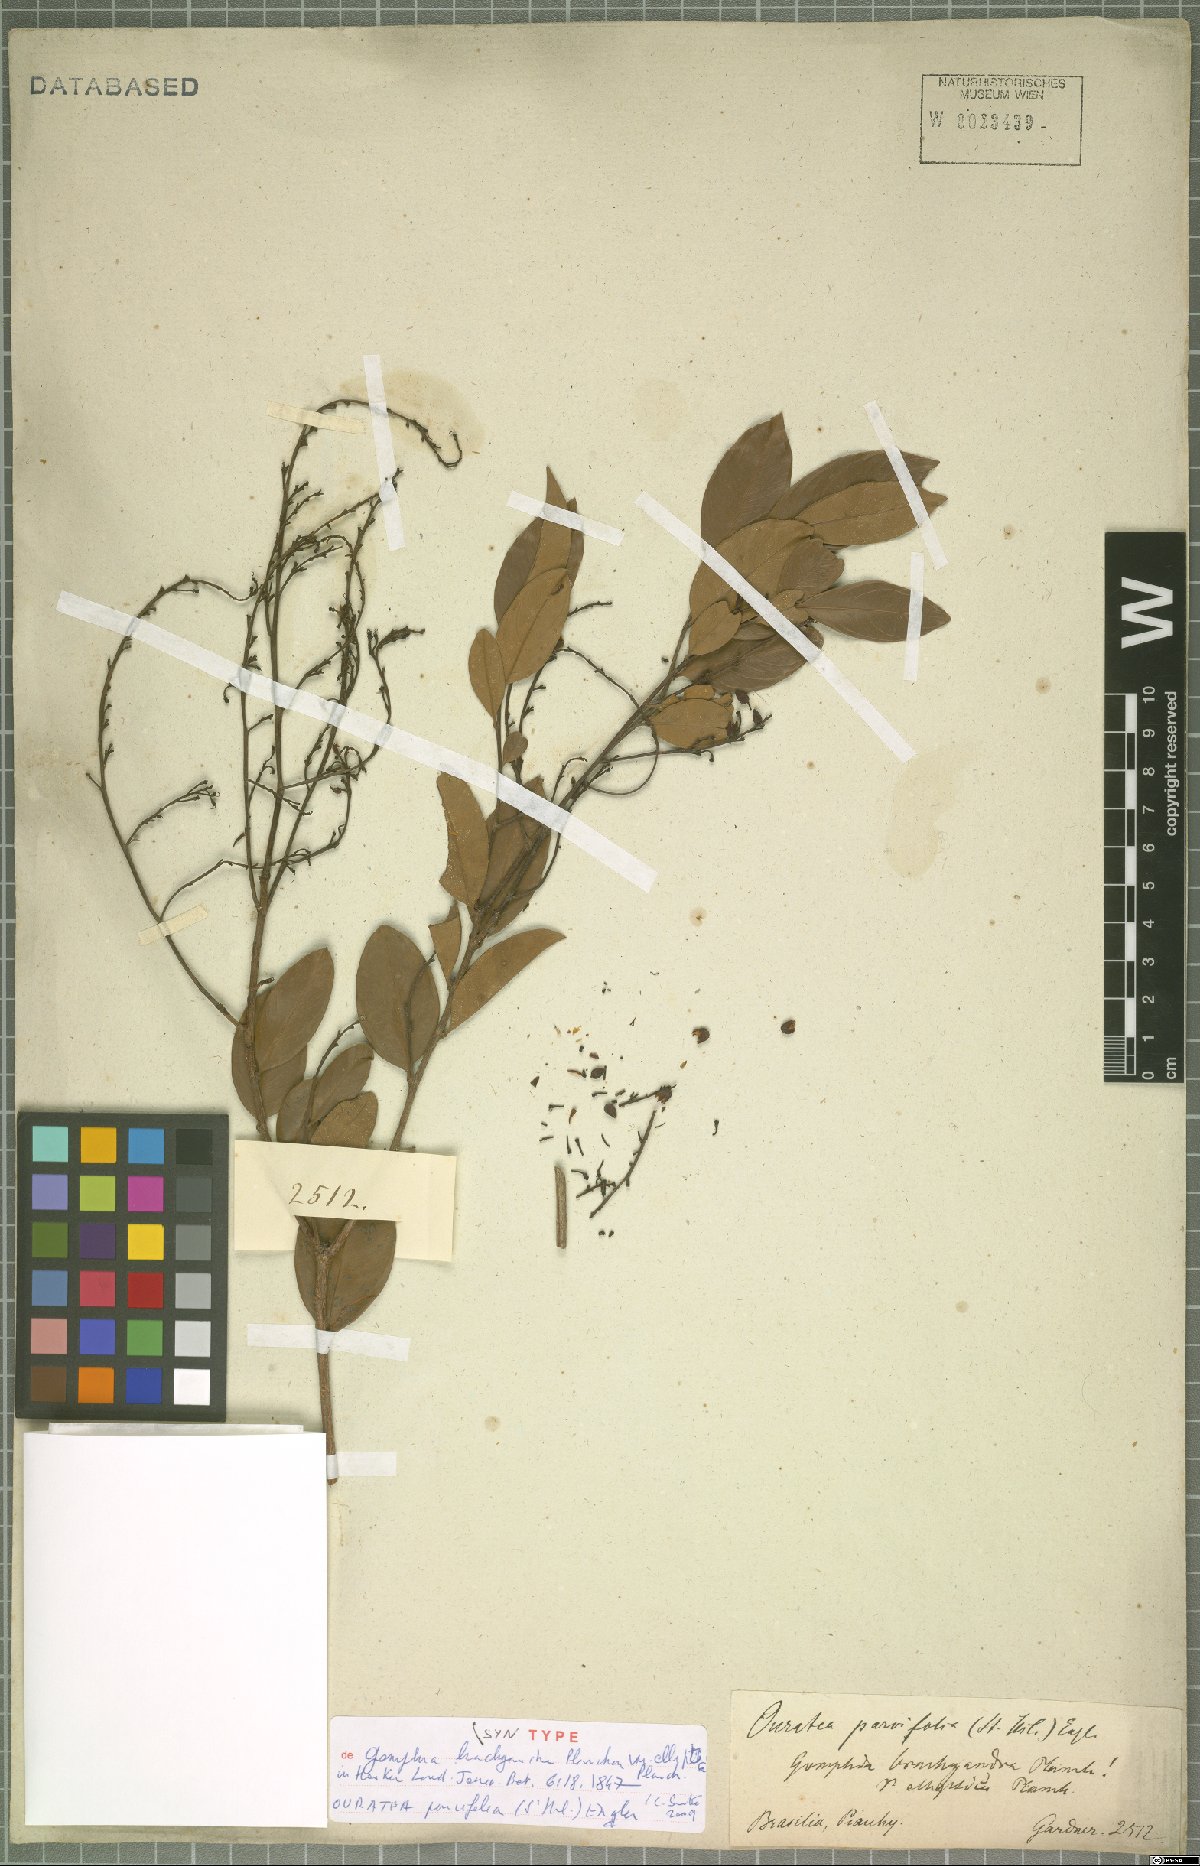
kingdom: Plantae
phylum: Tracheophyta
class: Magnoliopsida
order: Malpighiales
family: Ochnaceae
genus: Ouratea
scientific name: Ouratea parvifolia
